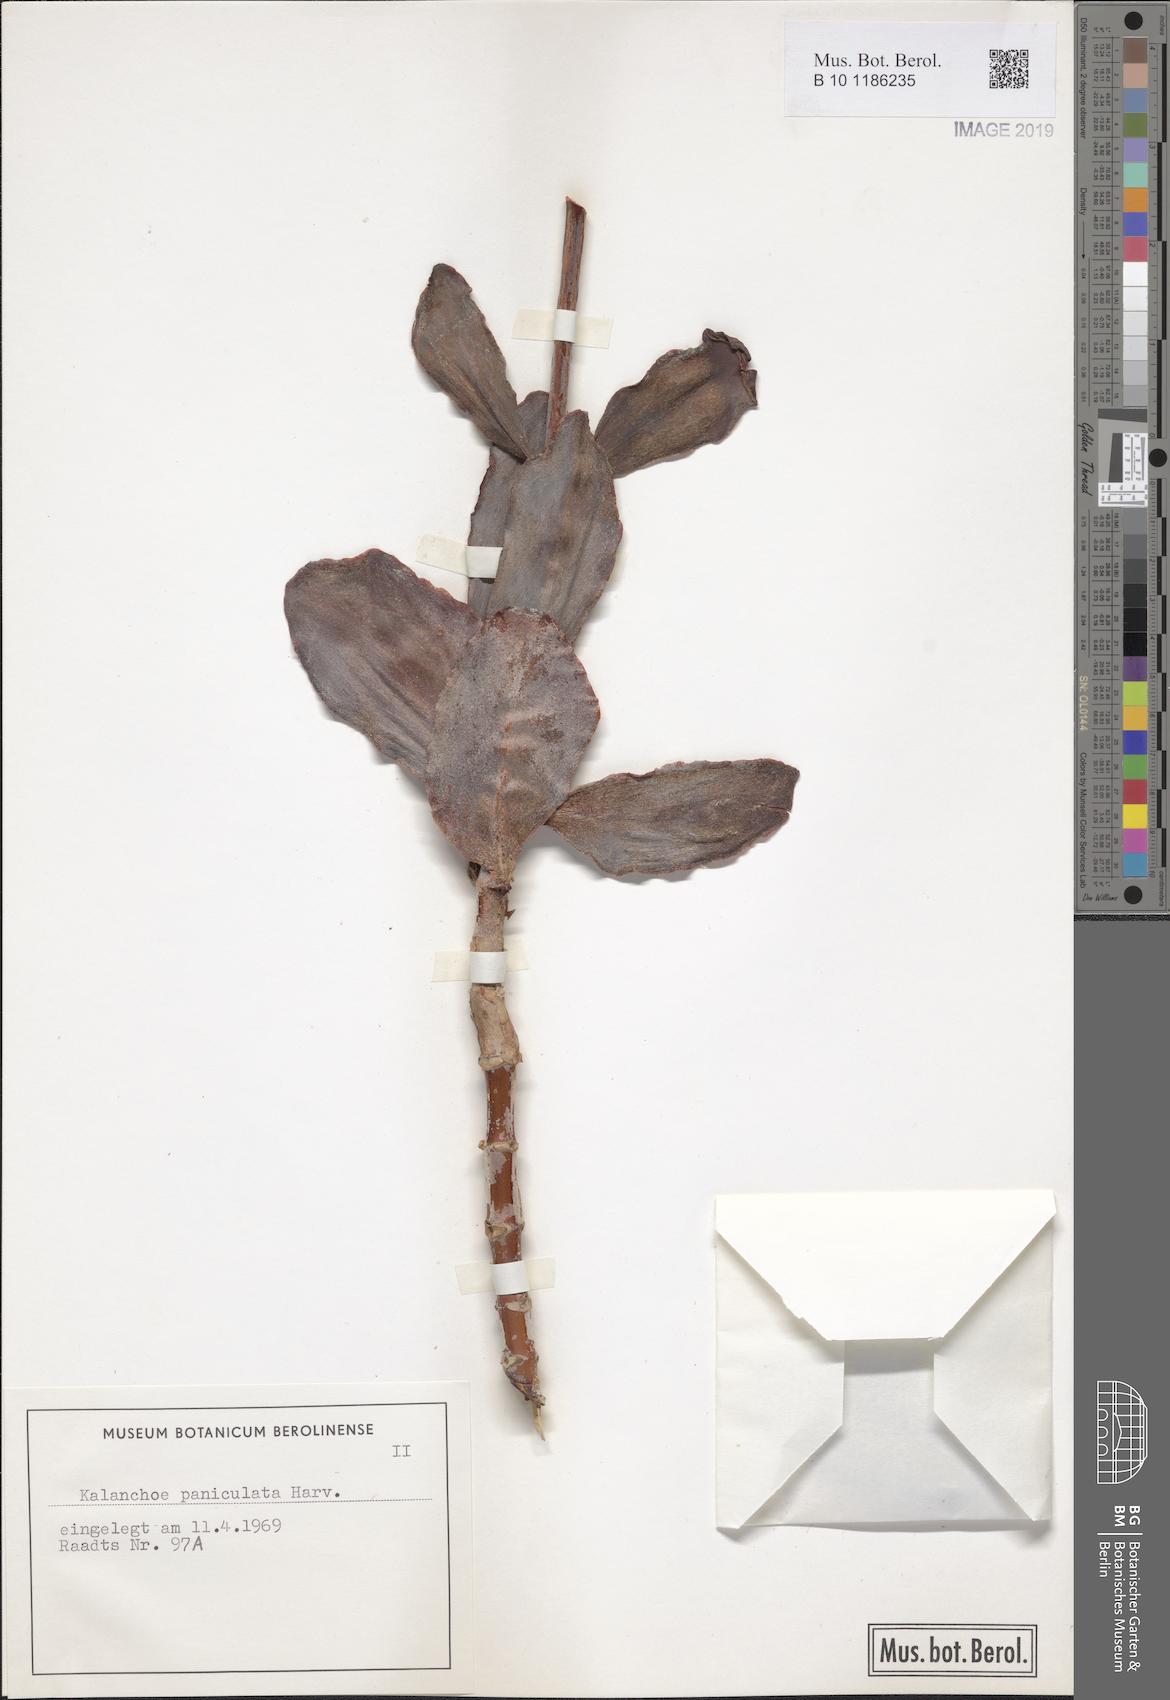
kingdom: Plantae
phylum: Tracheophyta
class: Magnoliopsida
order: Saxifragales
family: Crassulaceae
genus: Kalanchoe
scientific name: Kalanchoe paniculata
